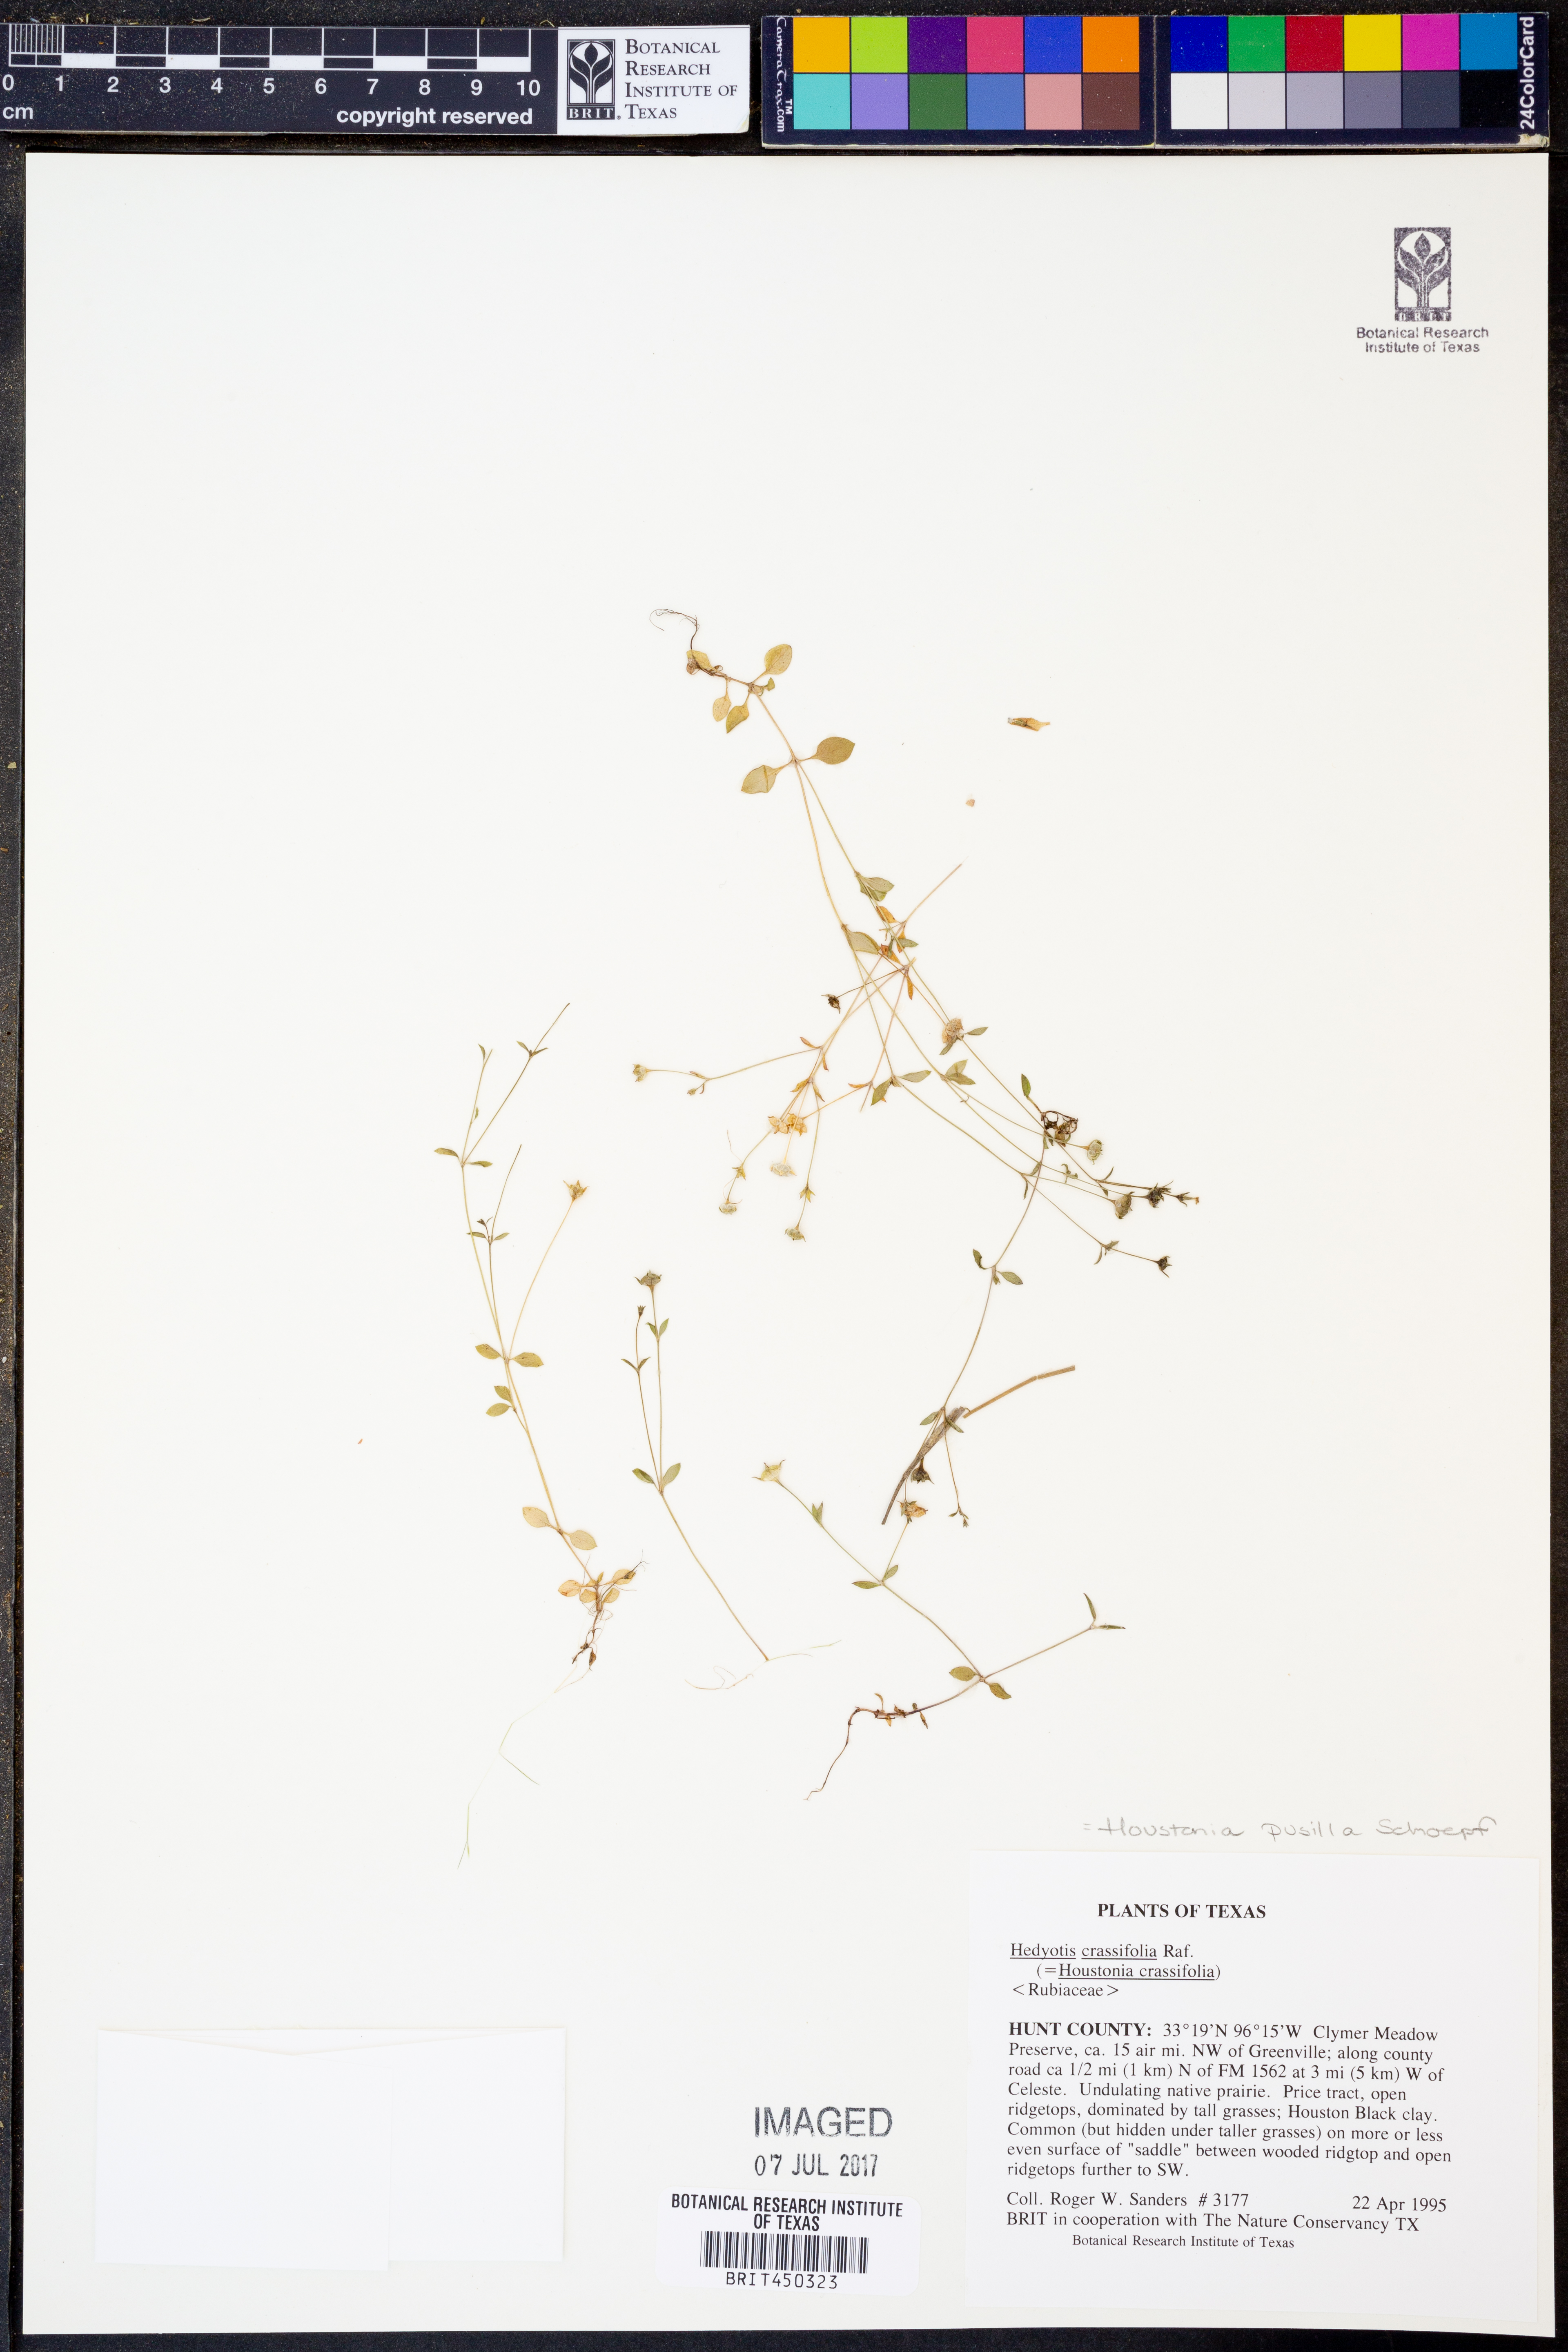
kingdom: Plantae
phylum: Tracheophyta
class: Magnoliopsida
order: Gentianales
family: Rubiaceae
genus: Houstonia
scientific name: Houstonia pusilla
